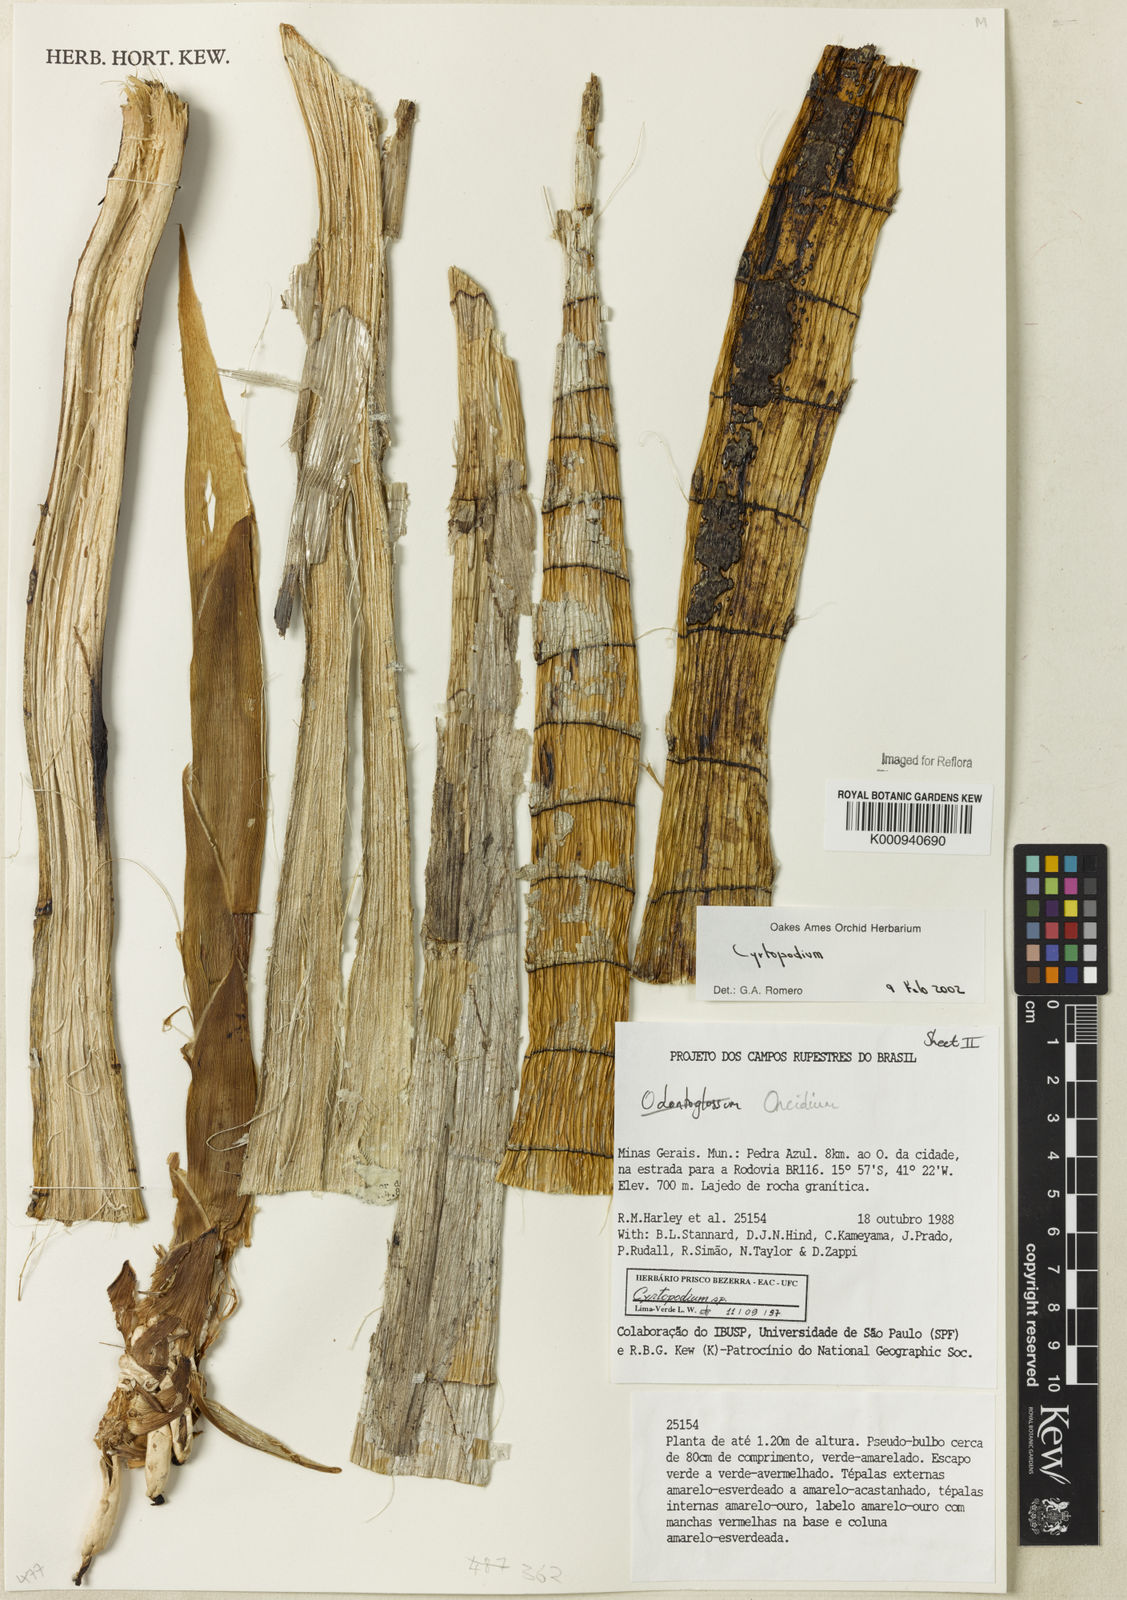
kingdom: Plantae
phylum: Tracheophyta
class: Liliopsida
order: Asparagales
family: Orchidaceae
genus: Cyrtopodium
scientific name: Cyrtopodium
